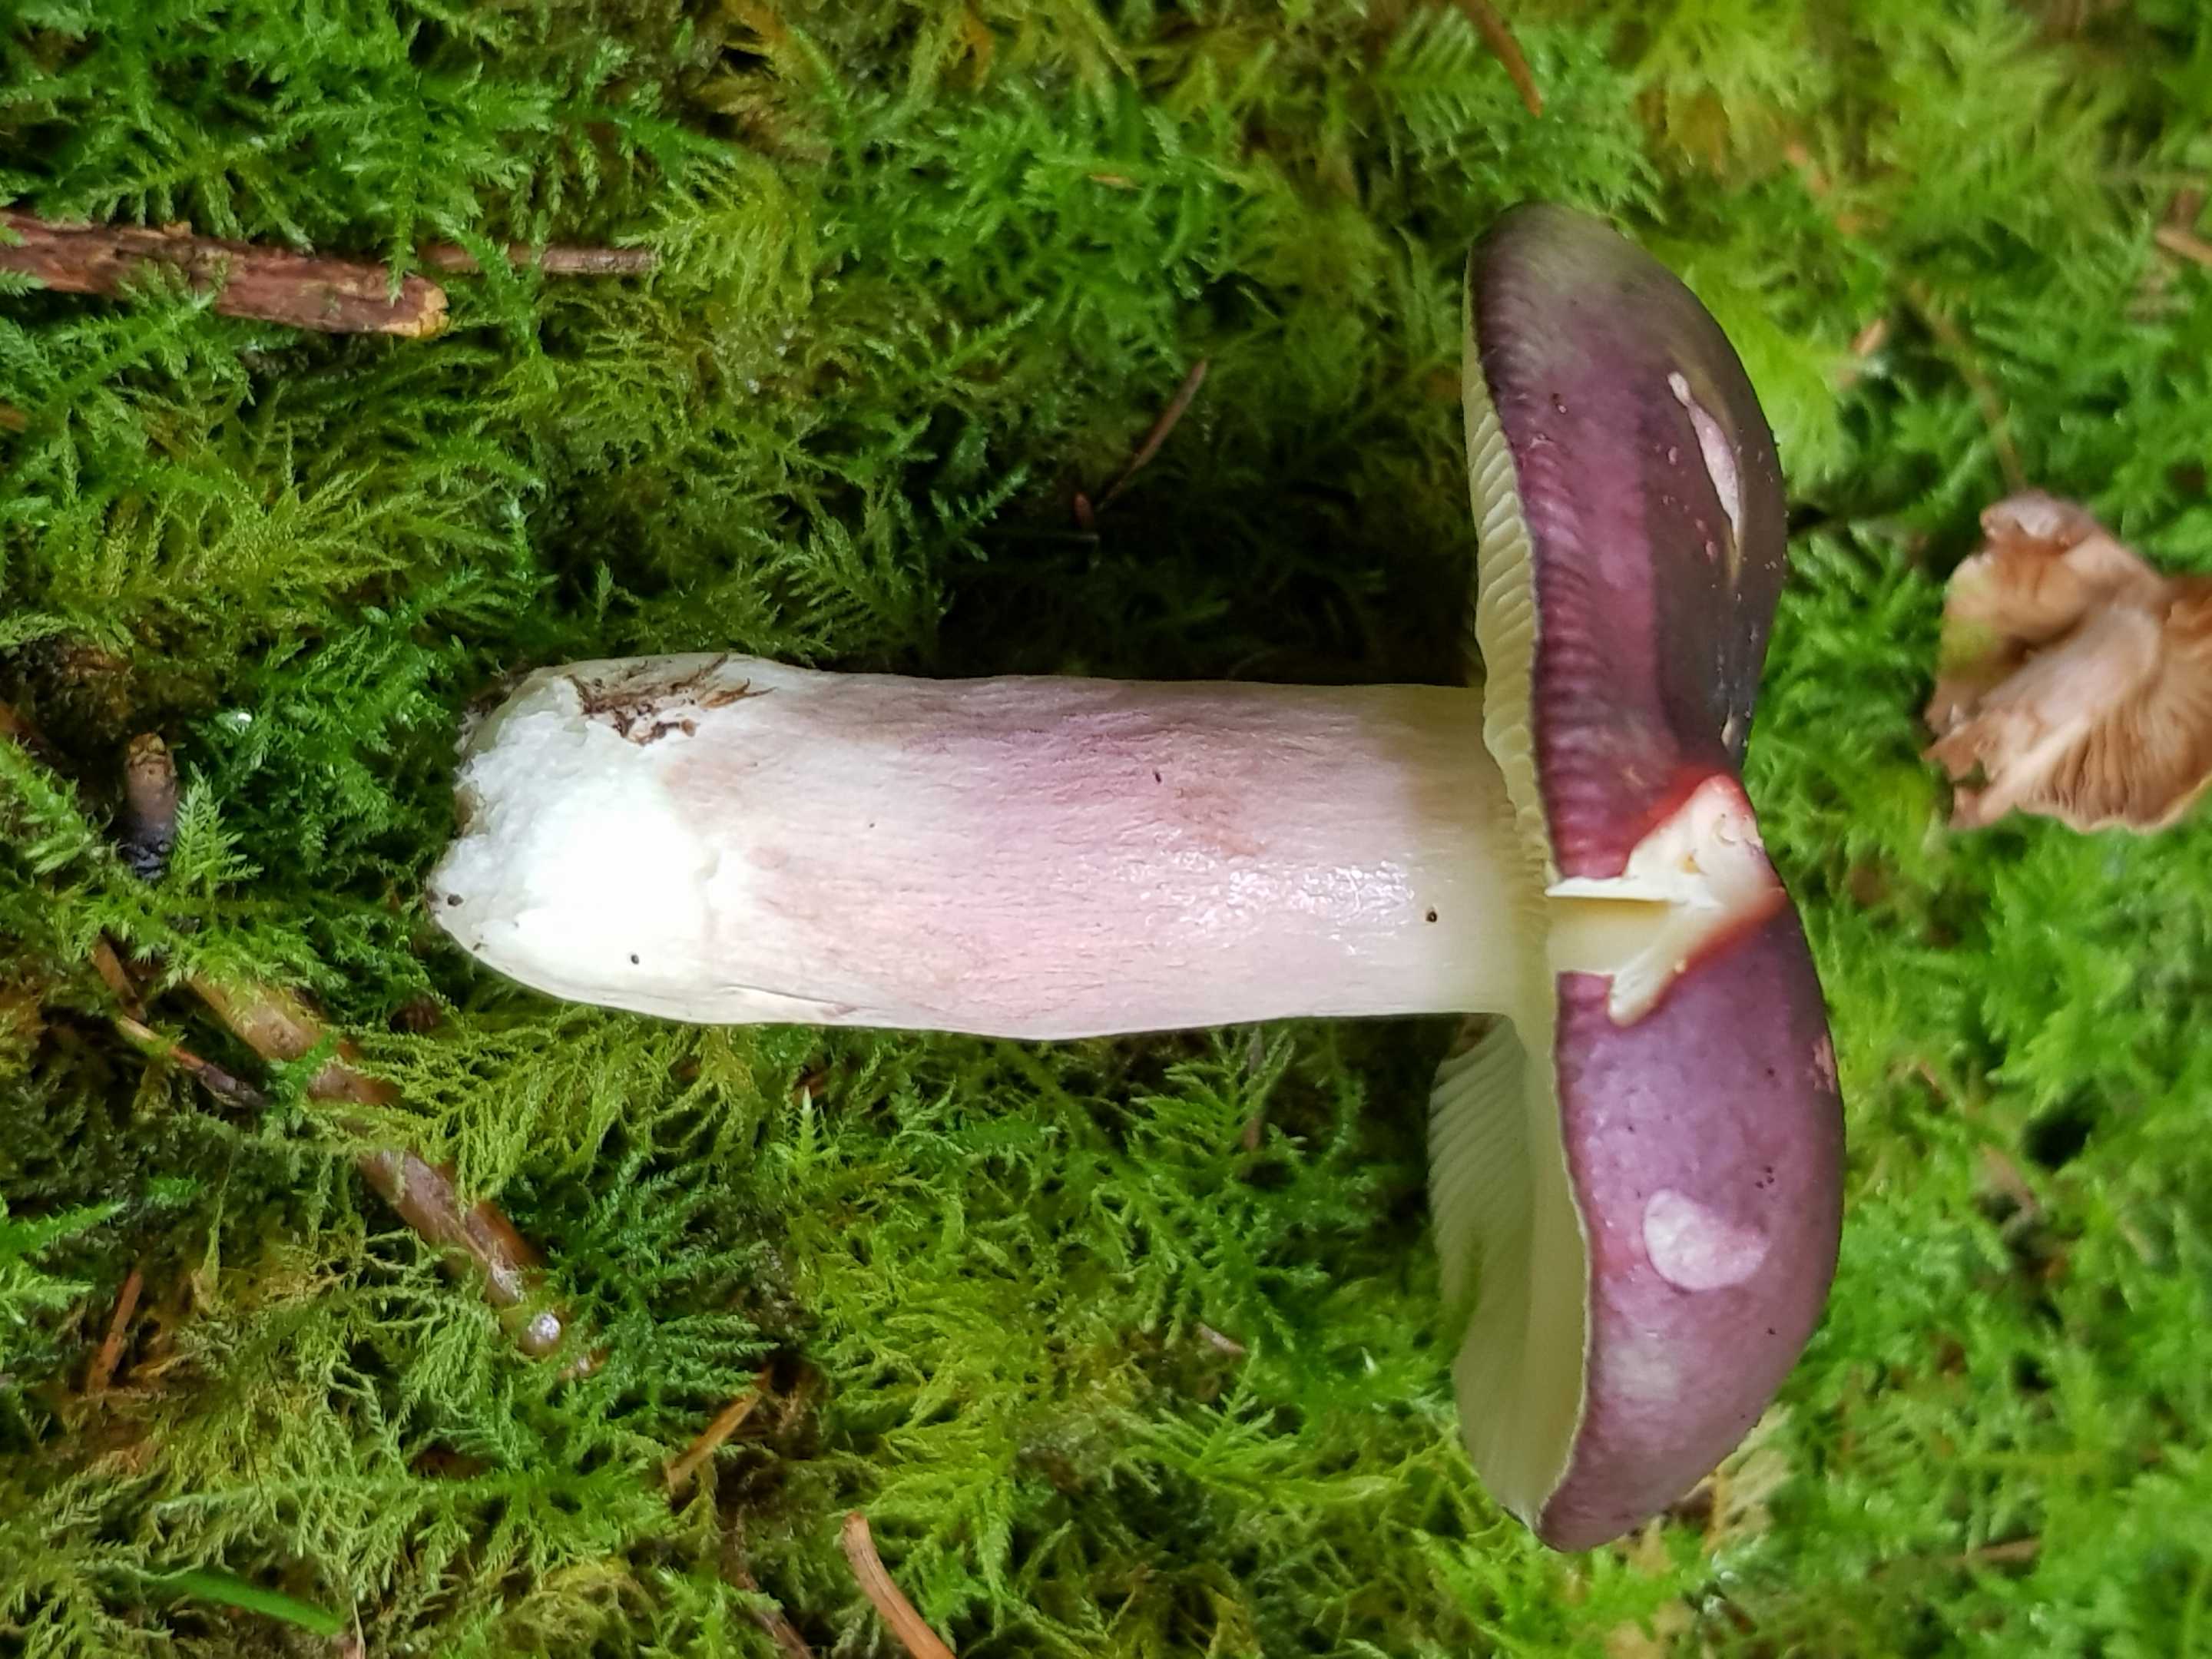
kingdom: Fungi
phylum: Basidiomycota
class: Agaricomycetes
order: Russulales
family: Russulaceae
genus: Russula
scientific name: Russula
